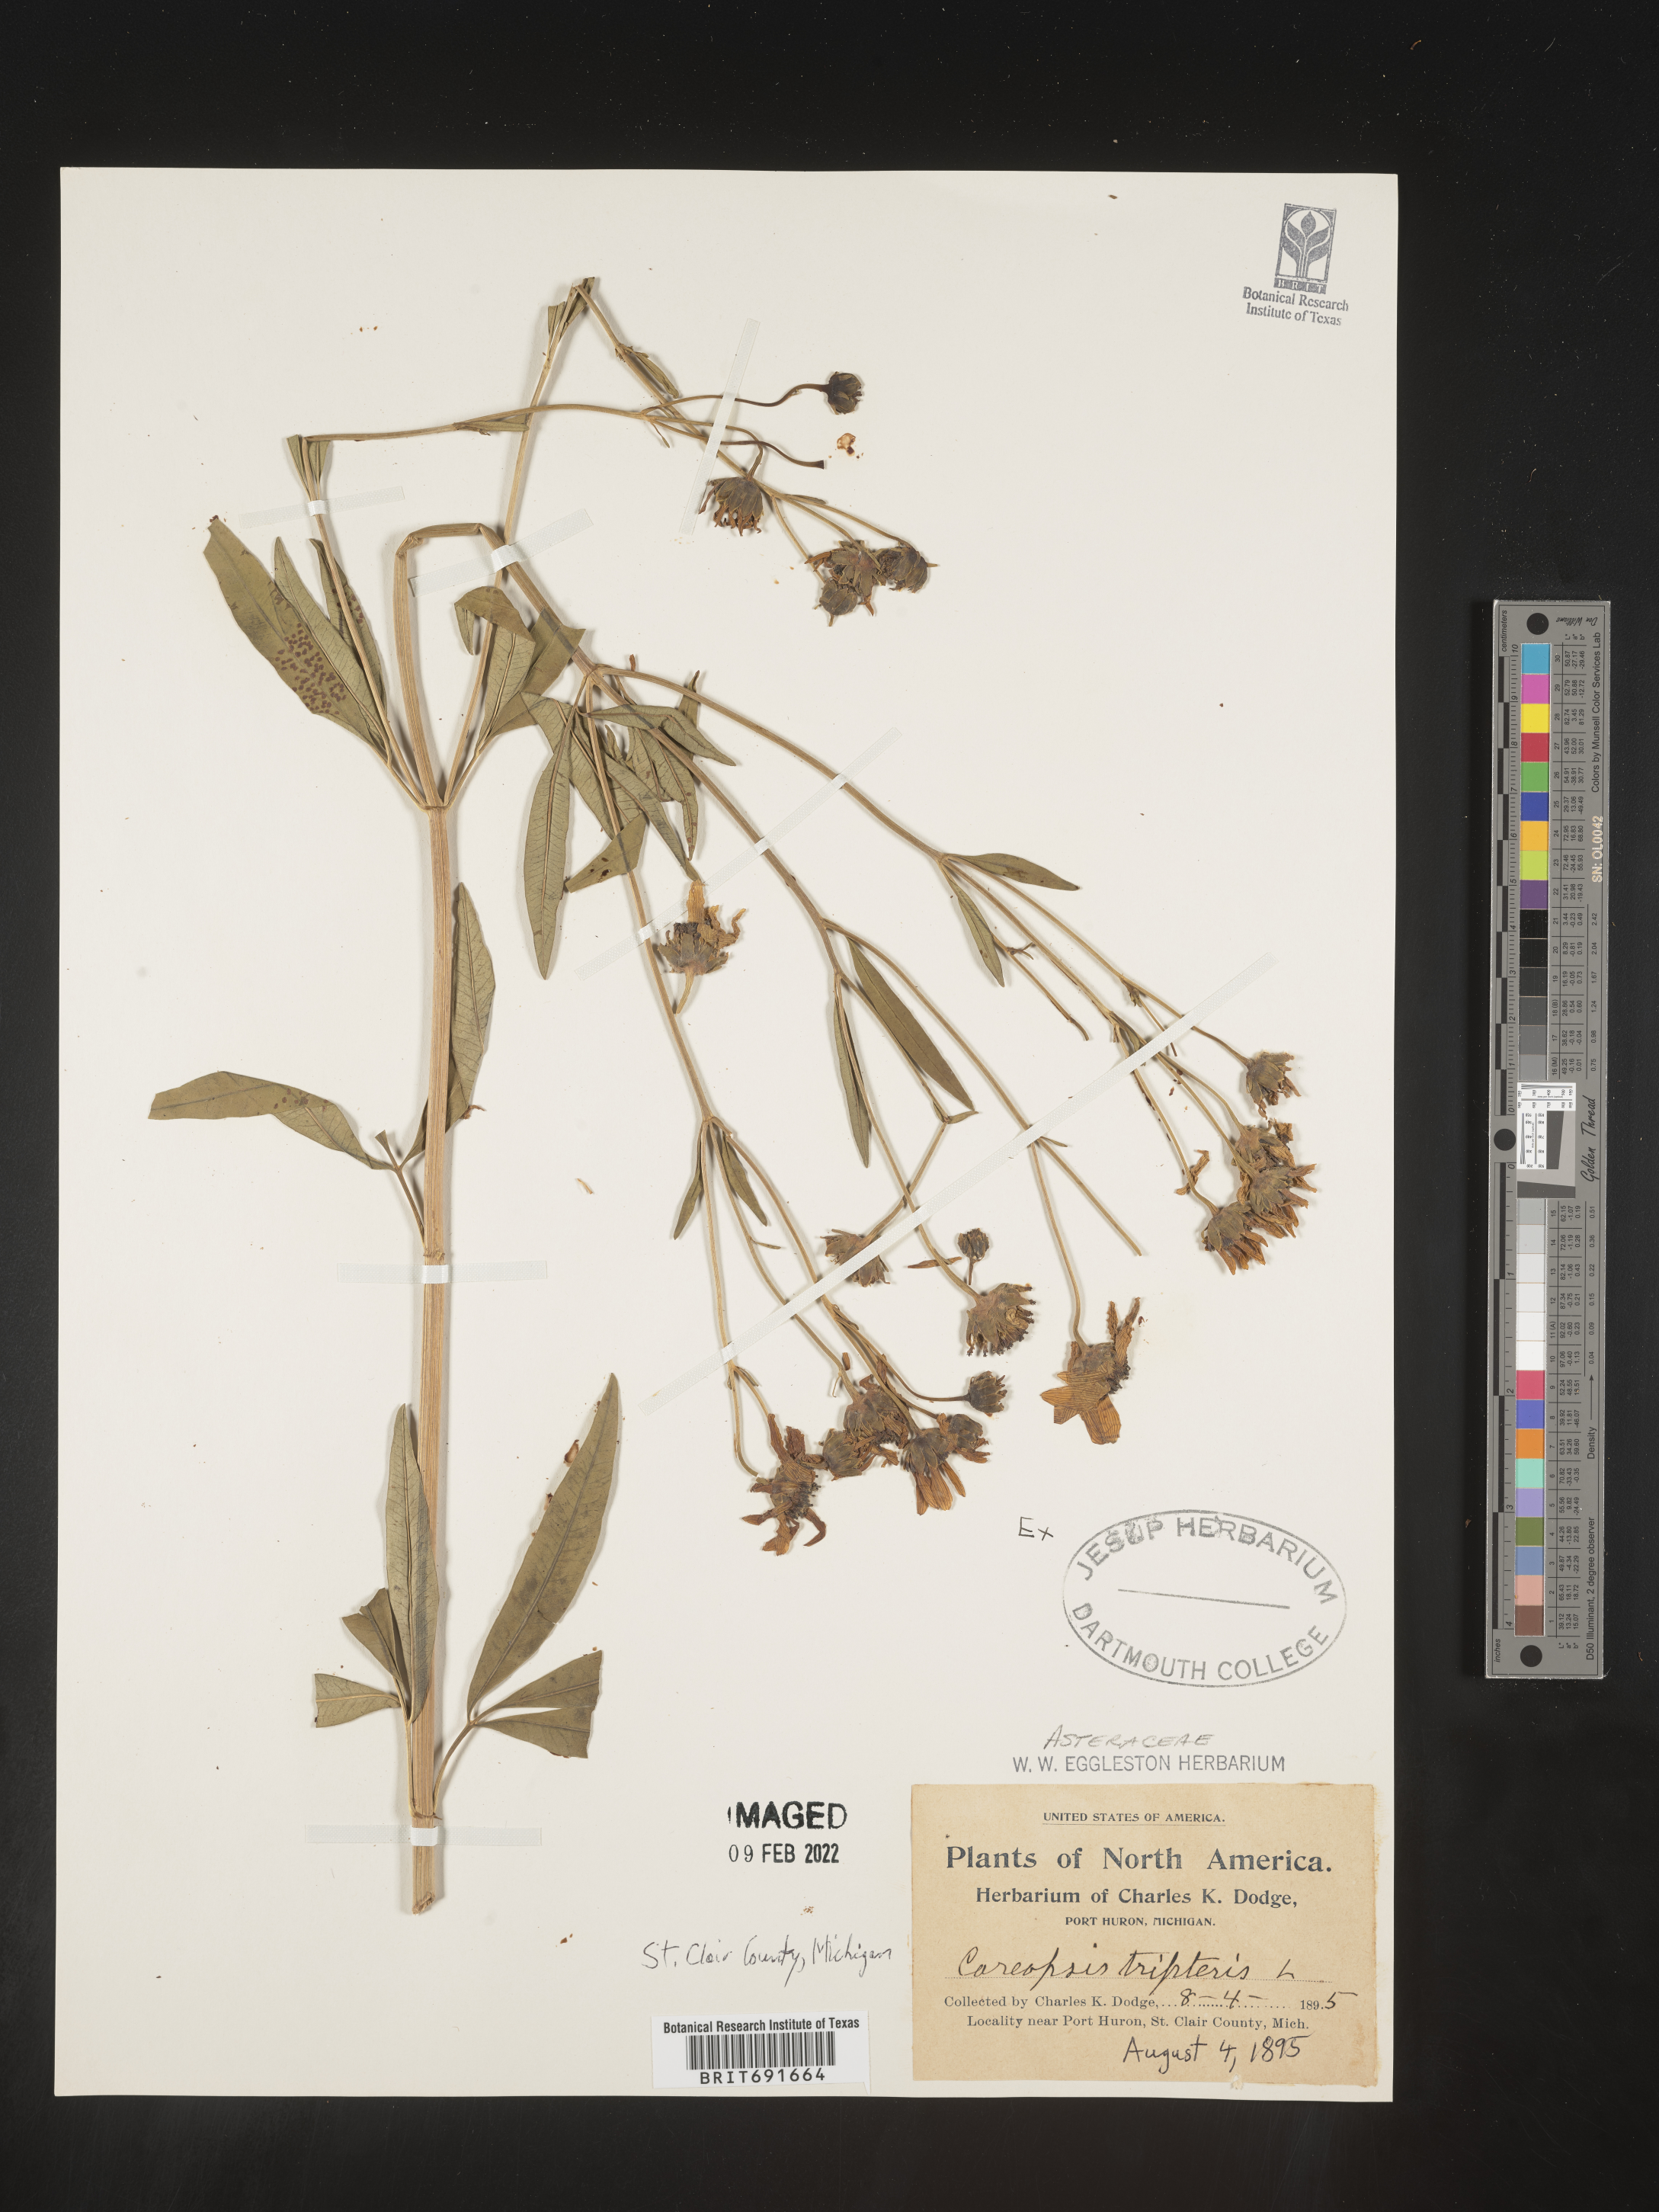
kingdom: Plantae
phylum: Tracheophyta
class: Magnoliopsida
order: Asterales
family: Asteraceae
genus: Coreopsis
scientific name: Coreopsis tripteris
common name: Tall coreopsis
